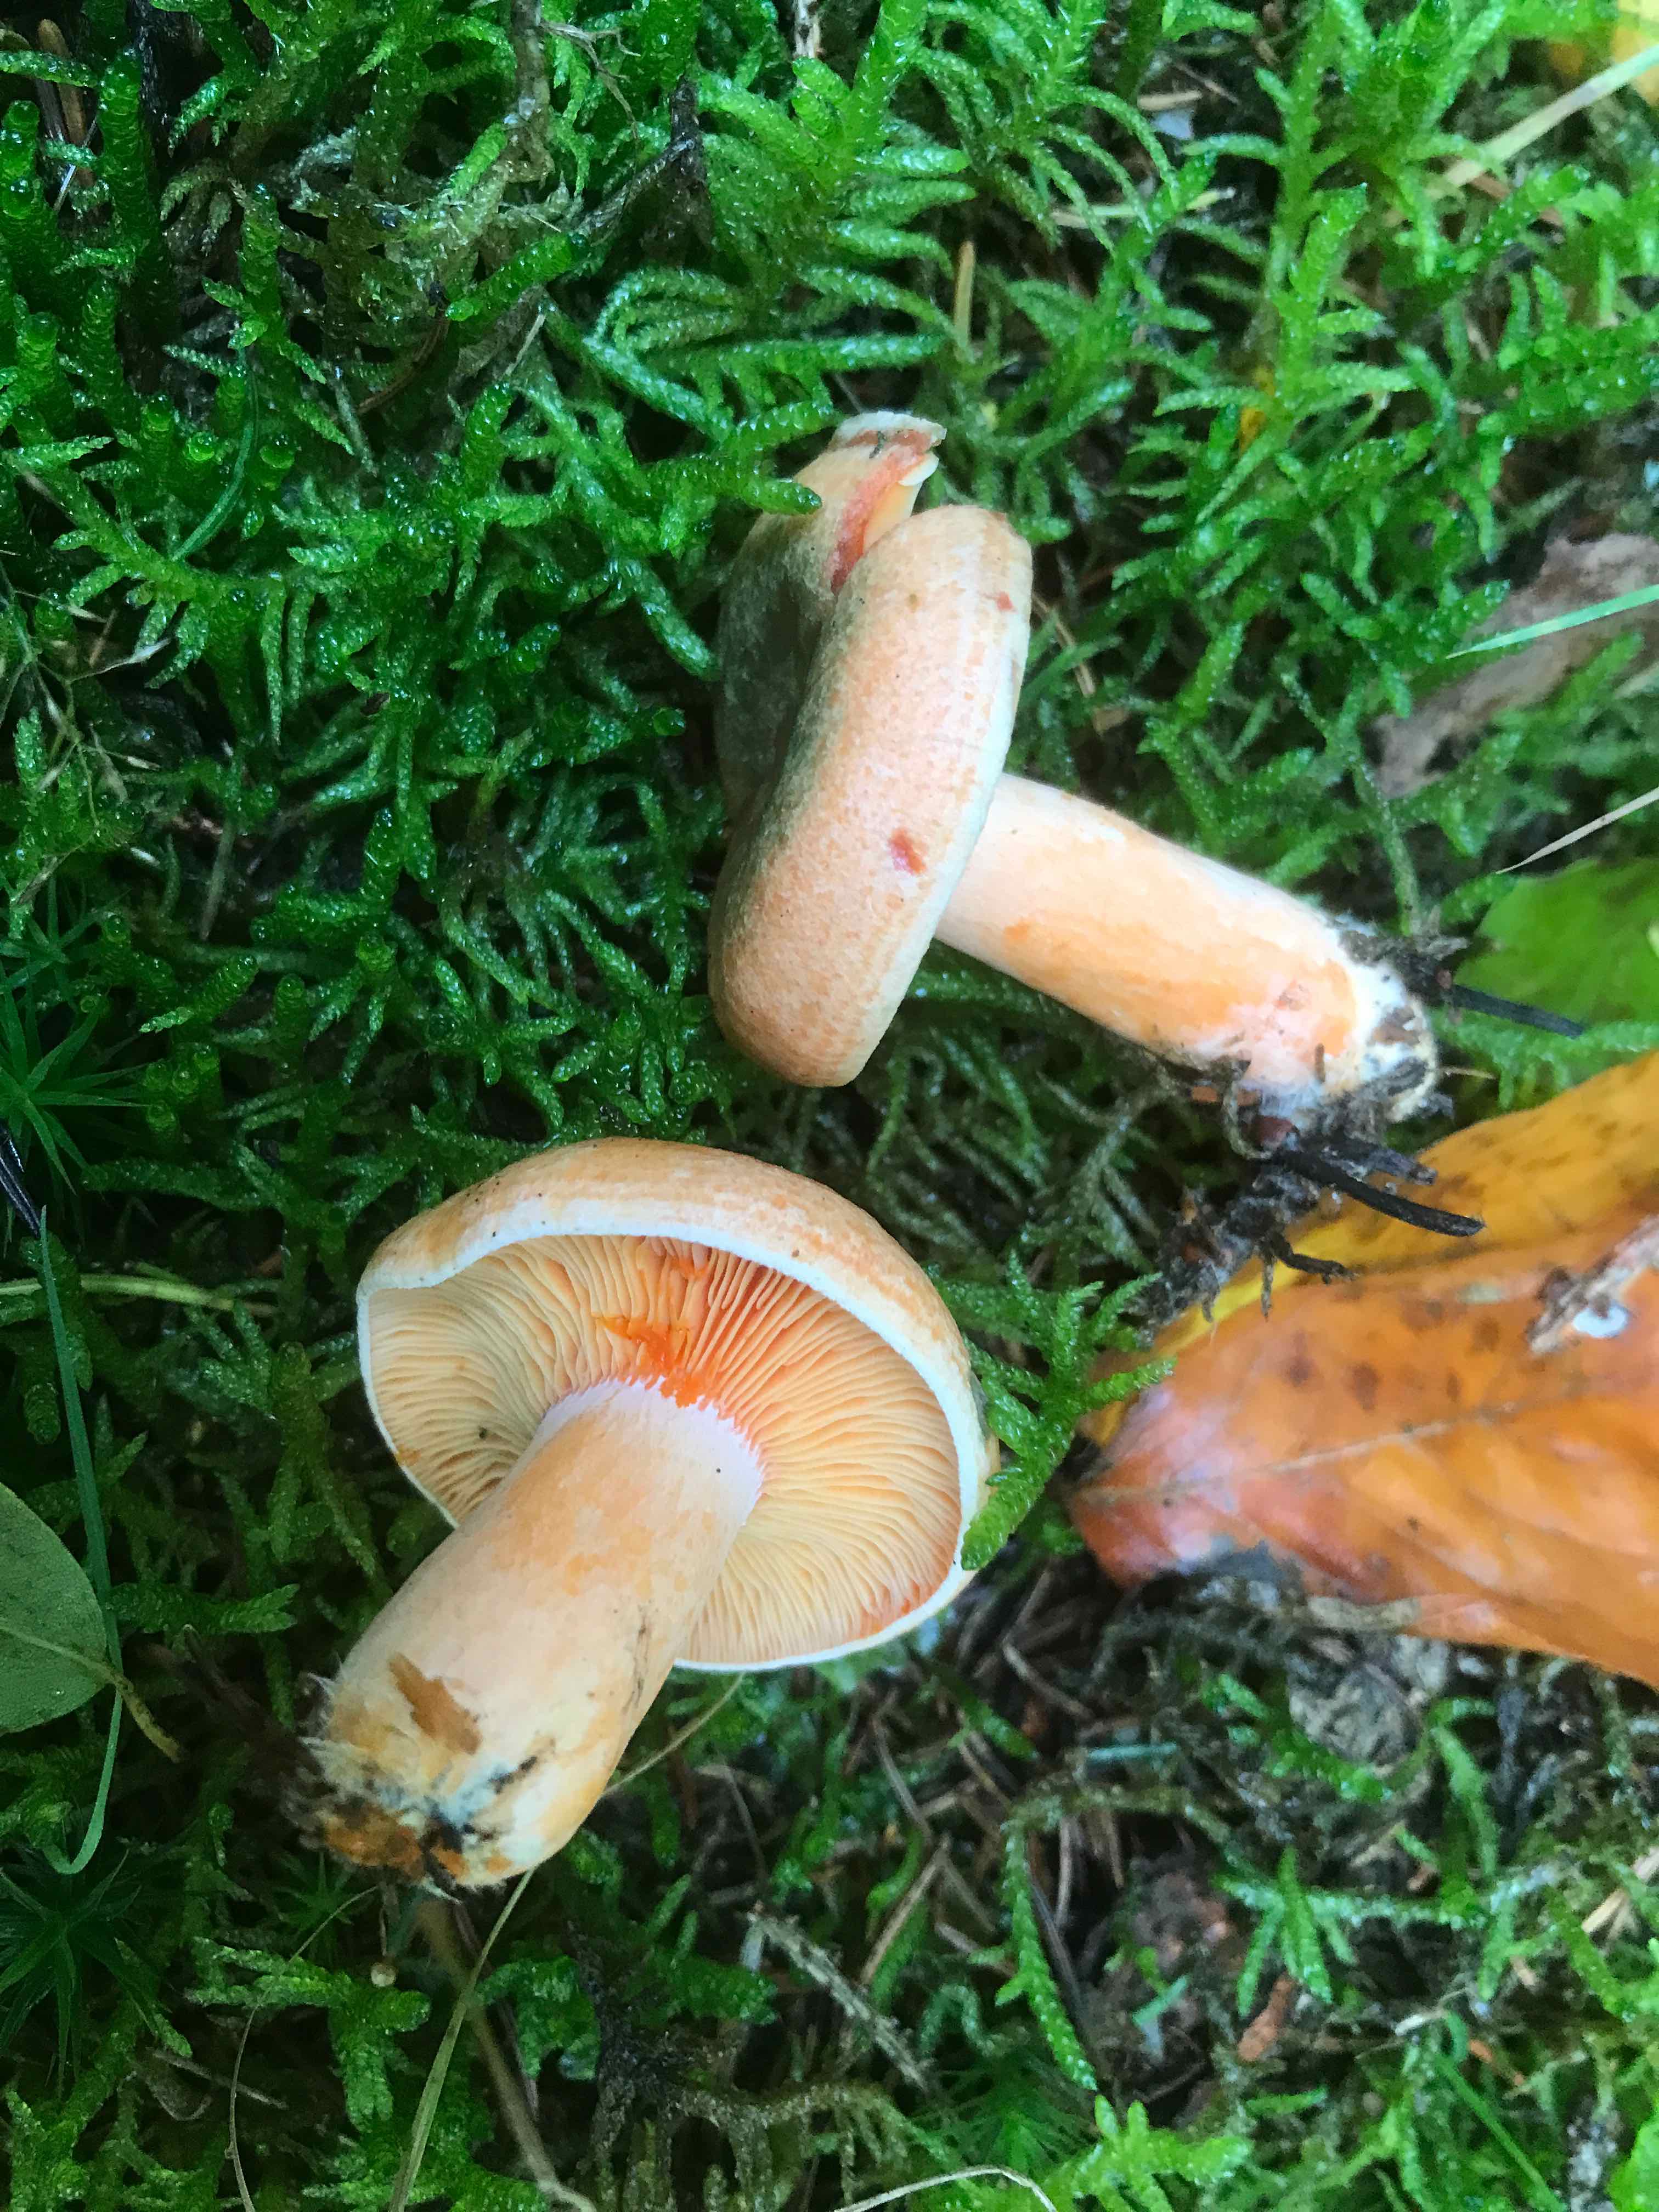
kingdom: Fungi
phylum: Basidiomycota
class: Agaricomycetes
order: Russulales
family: Russulaceae
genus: Lactarius
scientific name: Lactarius deterrimus
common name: gran-mælkehat
